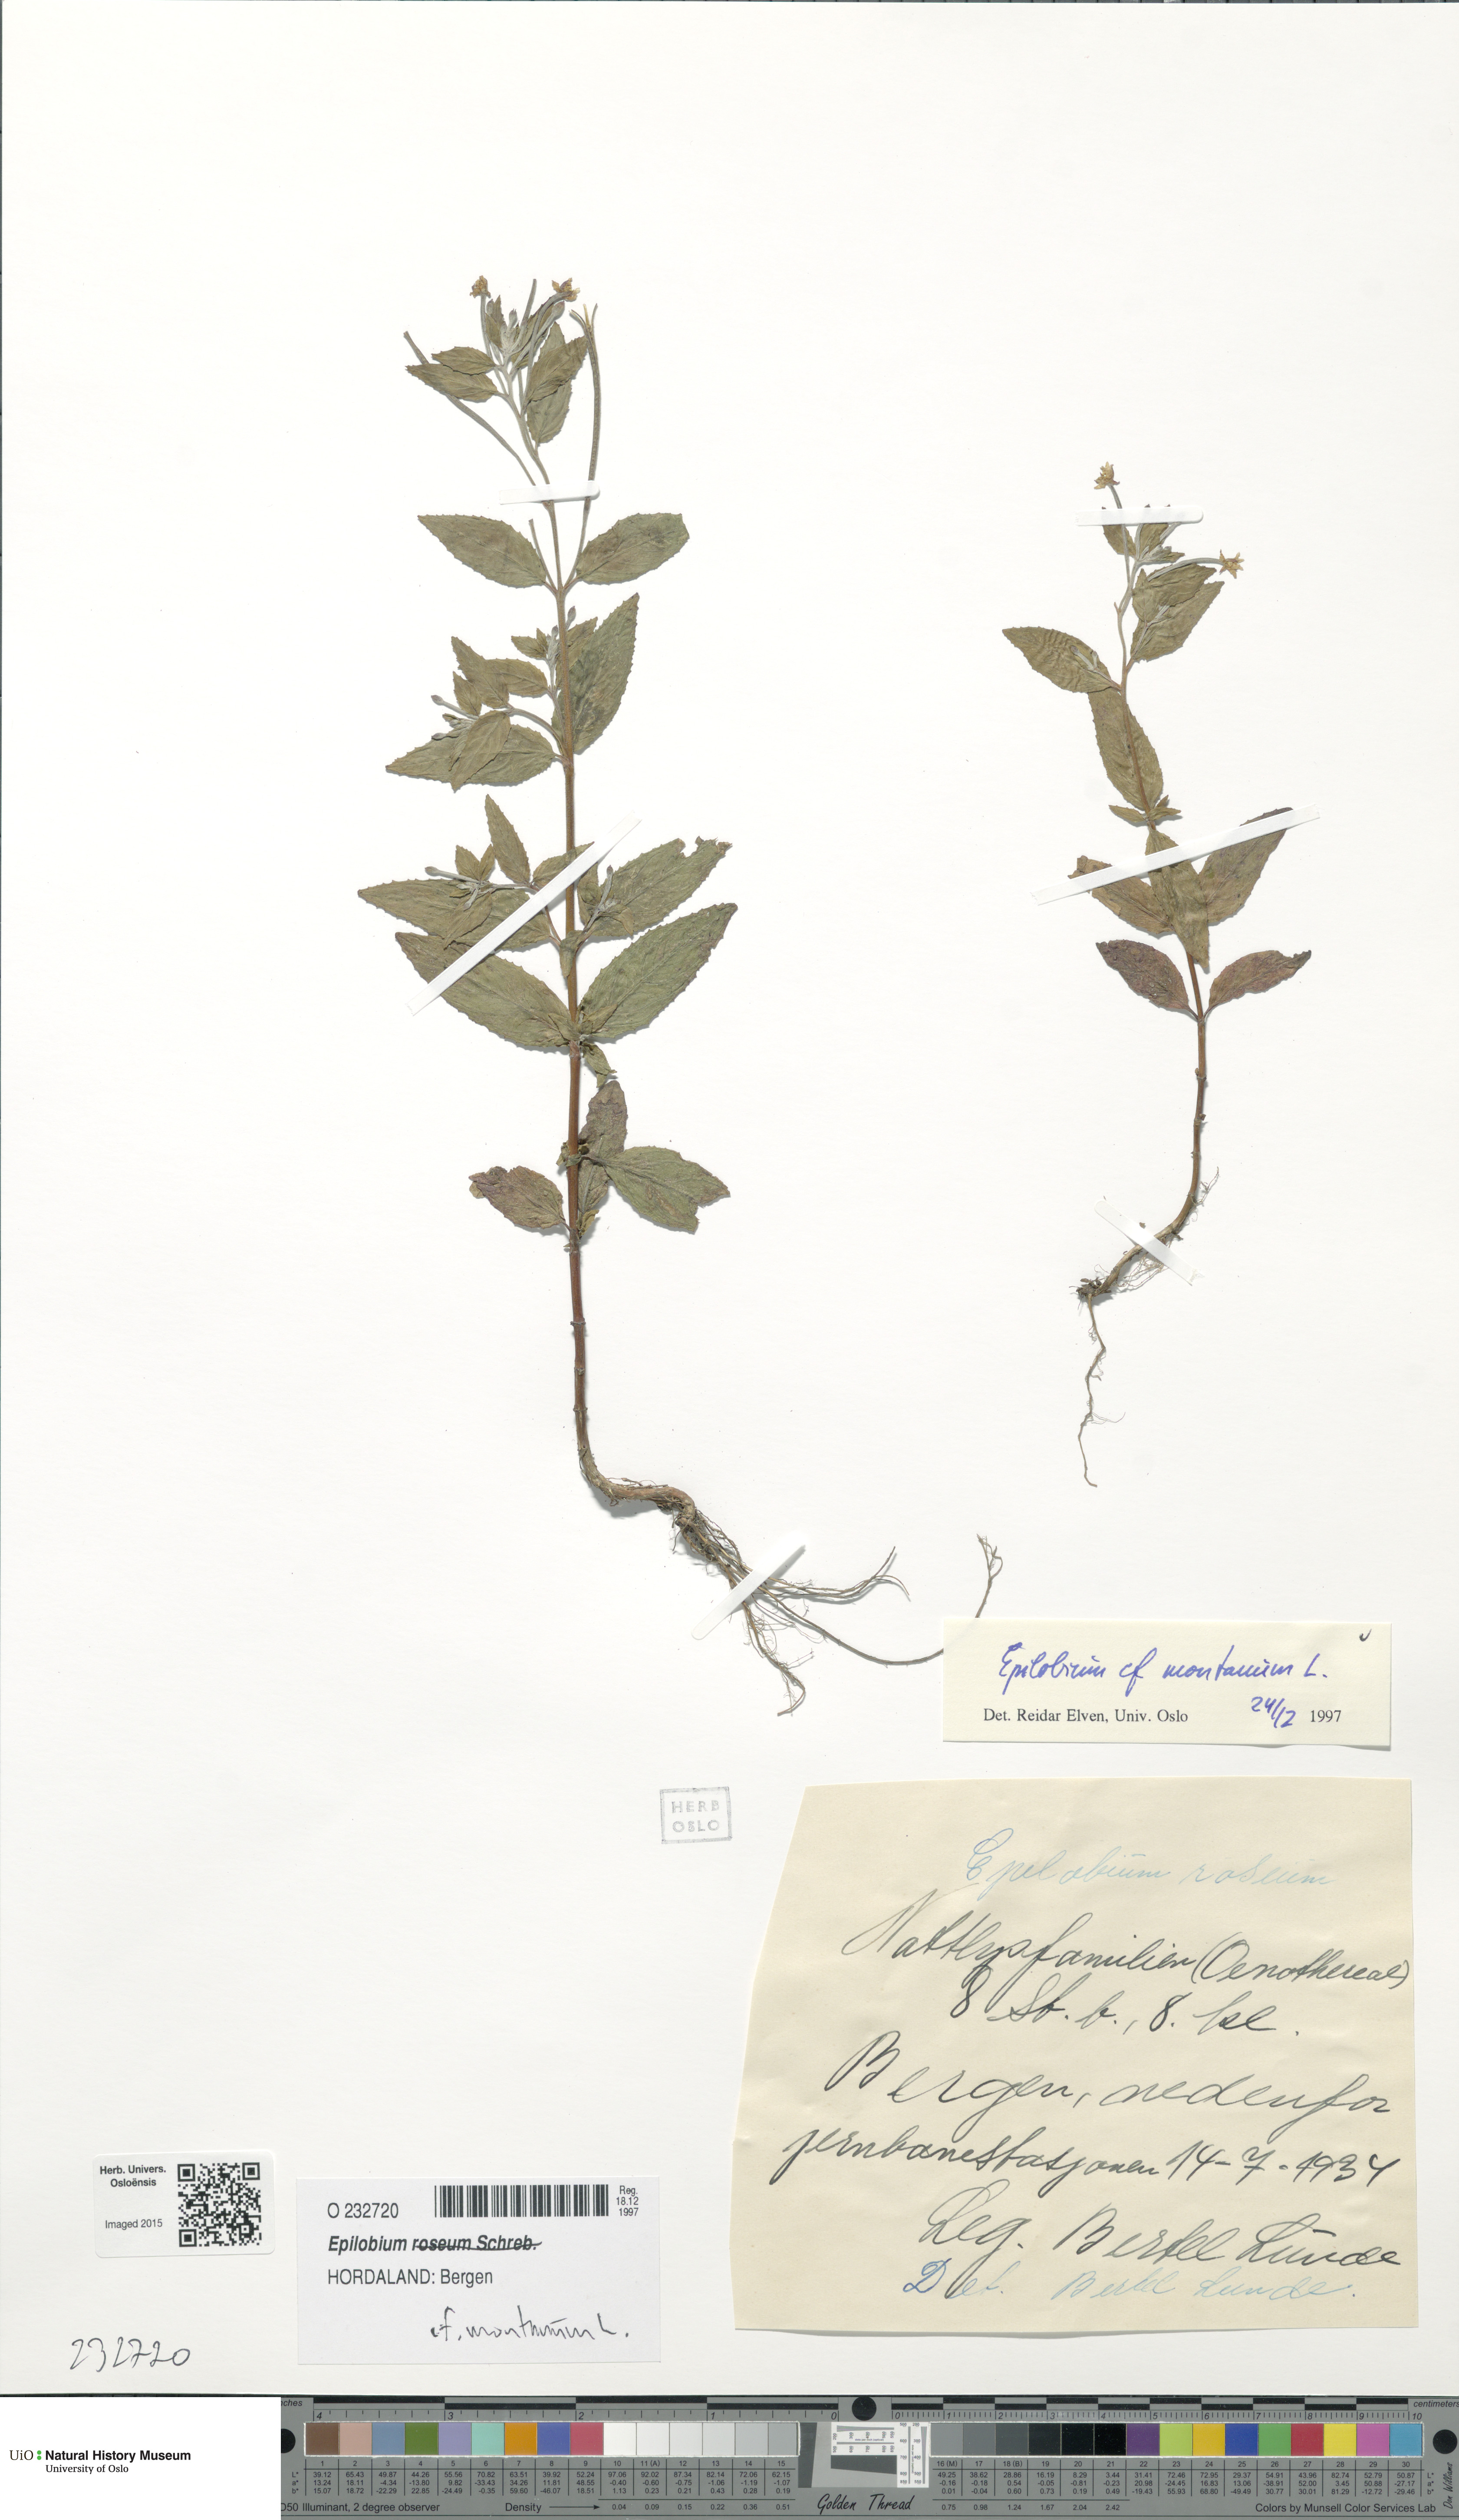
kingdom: Plantae
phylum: Tracheophyta
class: Magnoliopsida
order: Myrtales
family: Onagraceae
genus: Epilobium
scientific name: Epilobium montanum
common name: Broad-leaved willowherb
